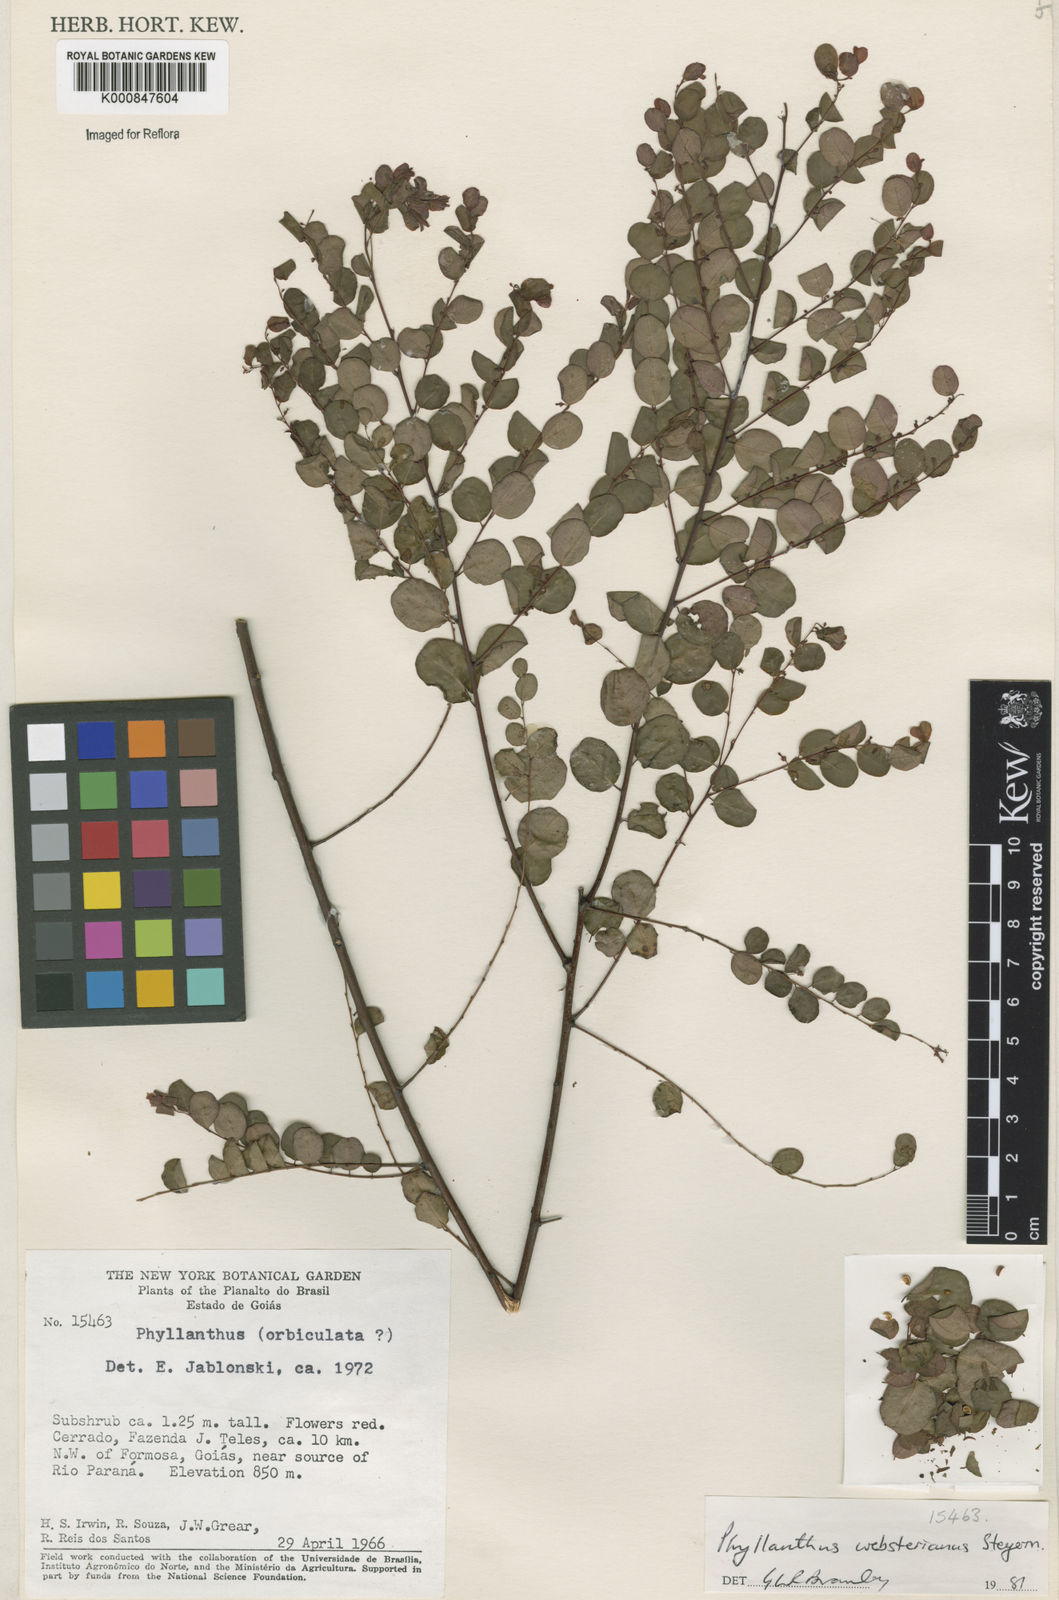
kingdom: Plantae
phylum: Tracheophyta
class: Magnoliopsida
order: Malpighiales
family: Phyllanthaceae
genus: Phyllanthus
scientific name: Phyllanthus websterianus
